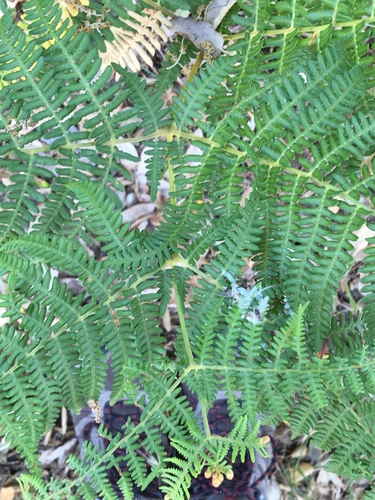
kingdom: Plantae
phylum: Tracheophyta
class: Polypodiopsida
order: Polypodiales
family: Dennstaedtiaceae
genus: Pteridium
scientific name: Pteridium aquilinum
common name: Bracken
